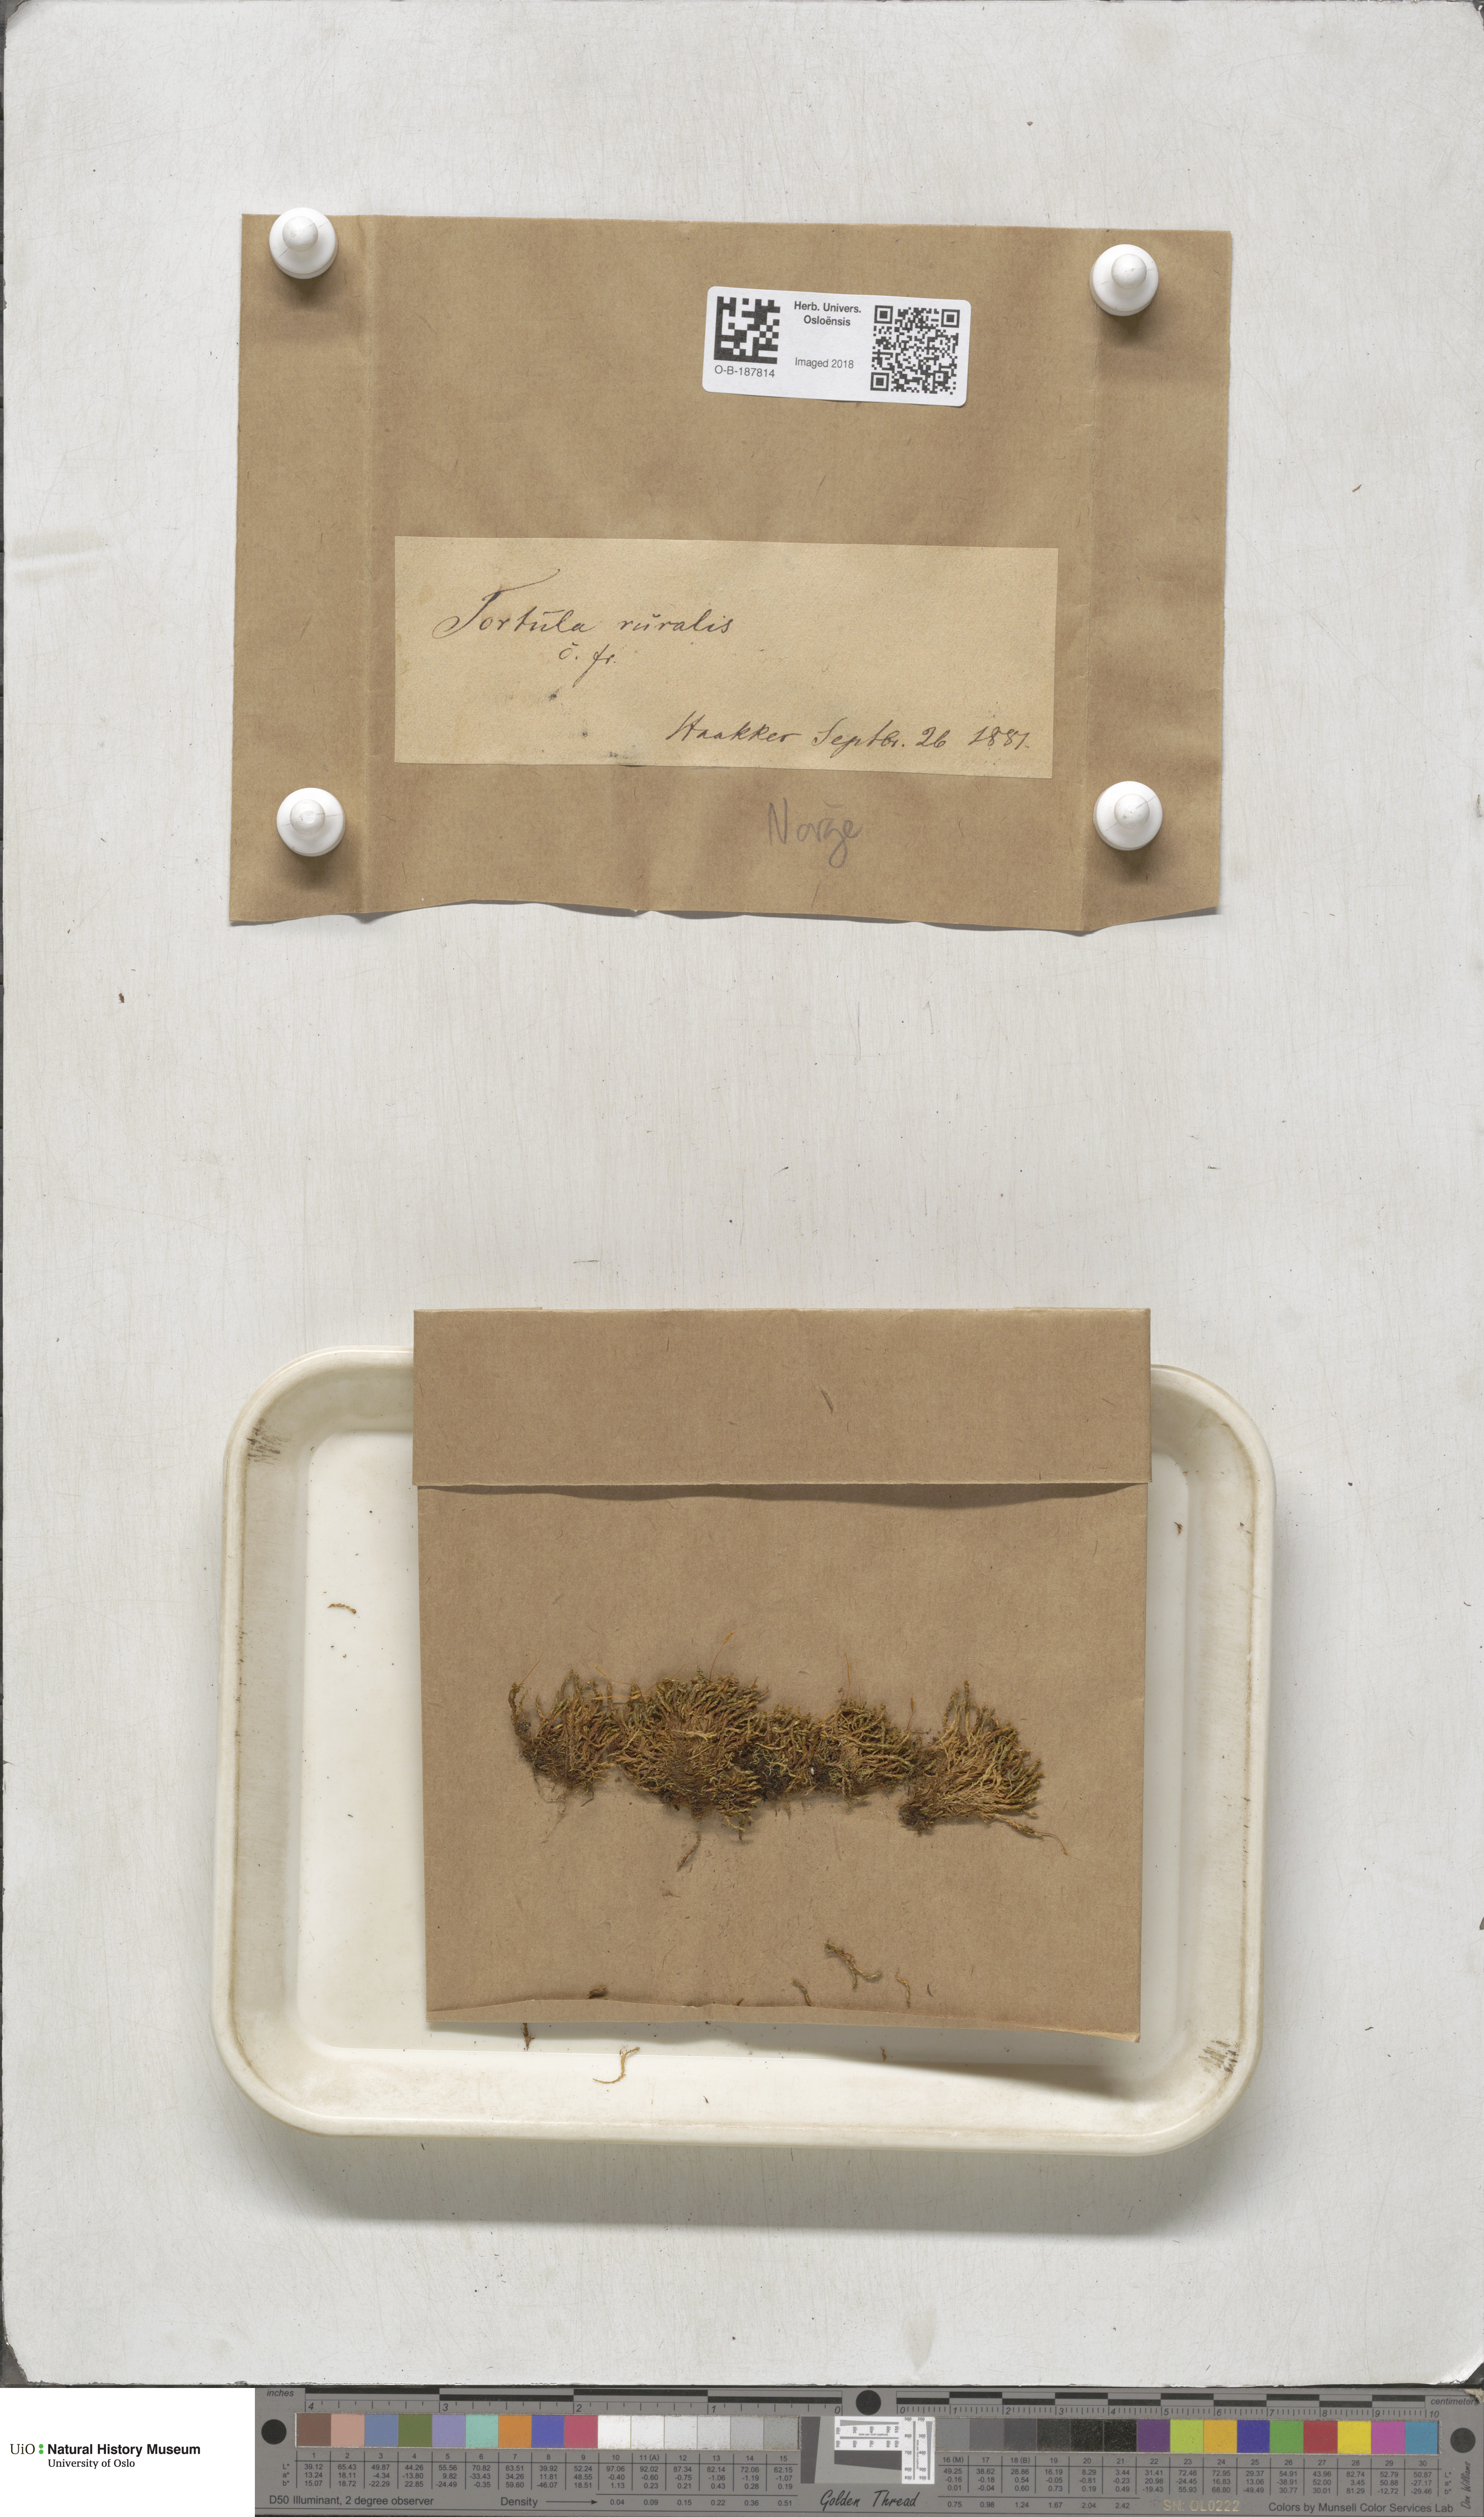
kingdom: Plantae
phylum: Bryophyta
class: Bryopsida
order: Pottiales
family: Pottiaceae
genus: Syntrichia
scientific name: Syntrichia ruralis
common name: Sidewalk screw moss
